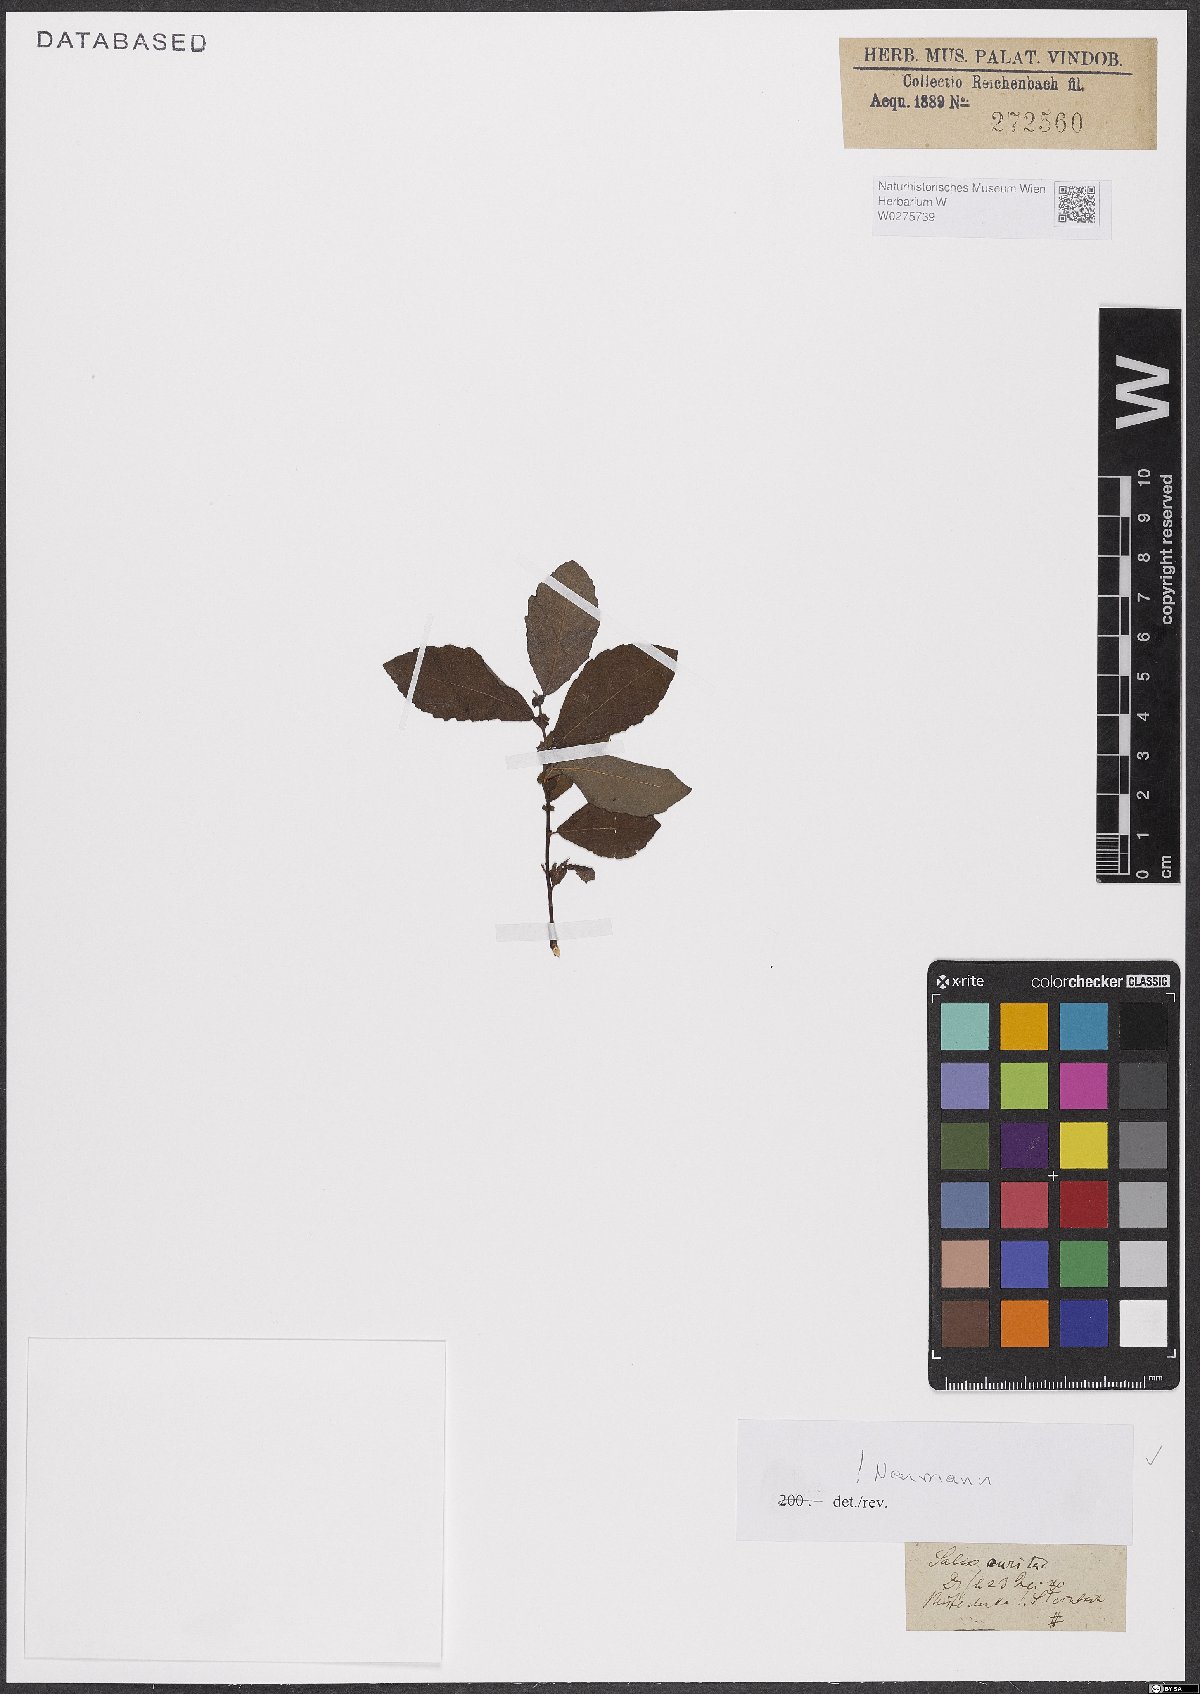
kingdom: Plantae
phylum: Tracheophyta
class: Magnoliopsida
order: Malpighiales
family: Salicaceae
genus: Salix
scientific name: Salix aurita
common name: Eared willow
